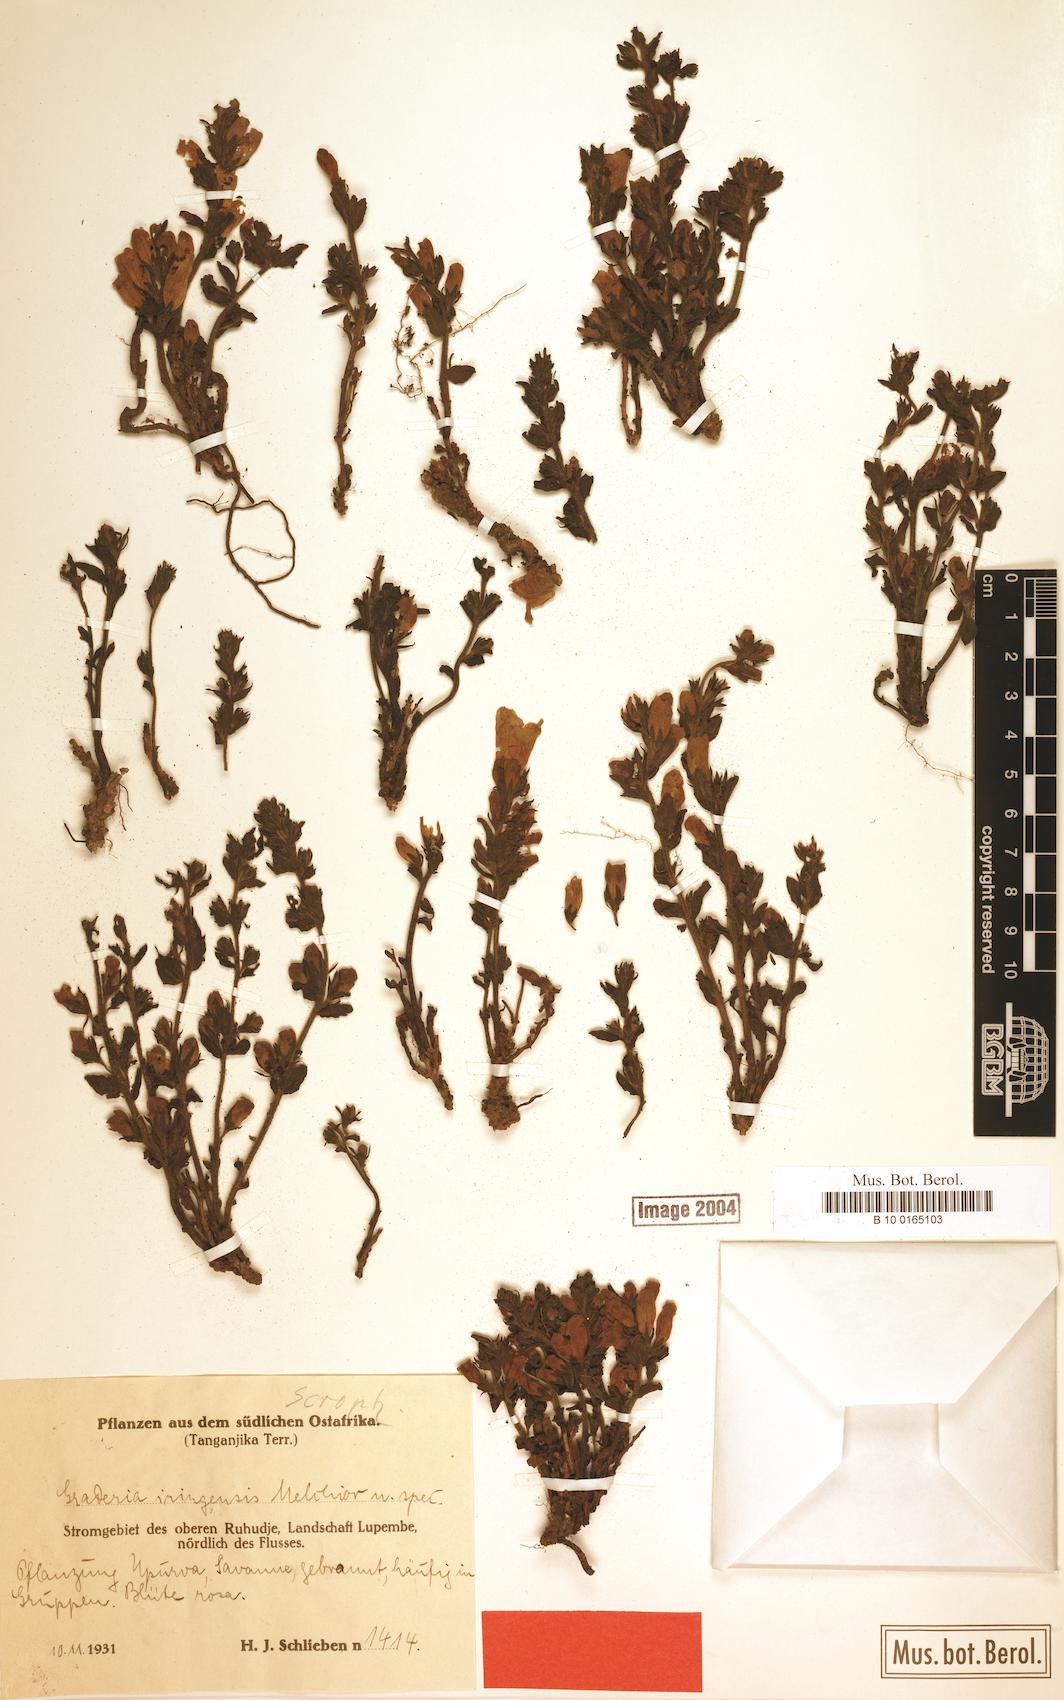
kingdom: Plantae
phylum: Tracheophyta
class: Magnoliopsida
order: Lamiales
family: Orobanchaceae
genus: Graderia
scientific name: Graderia scabra
